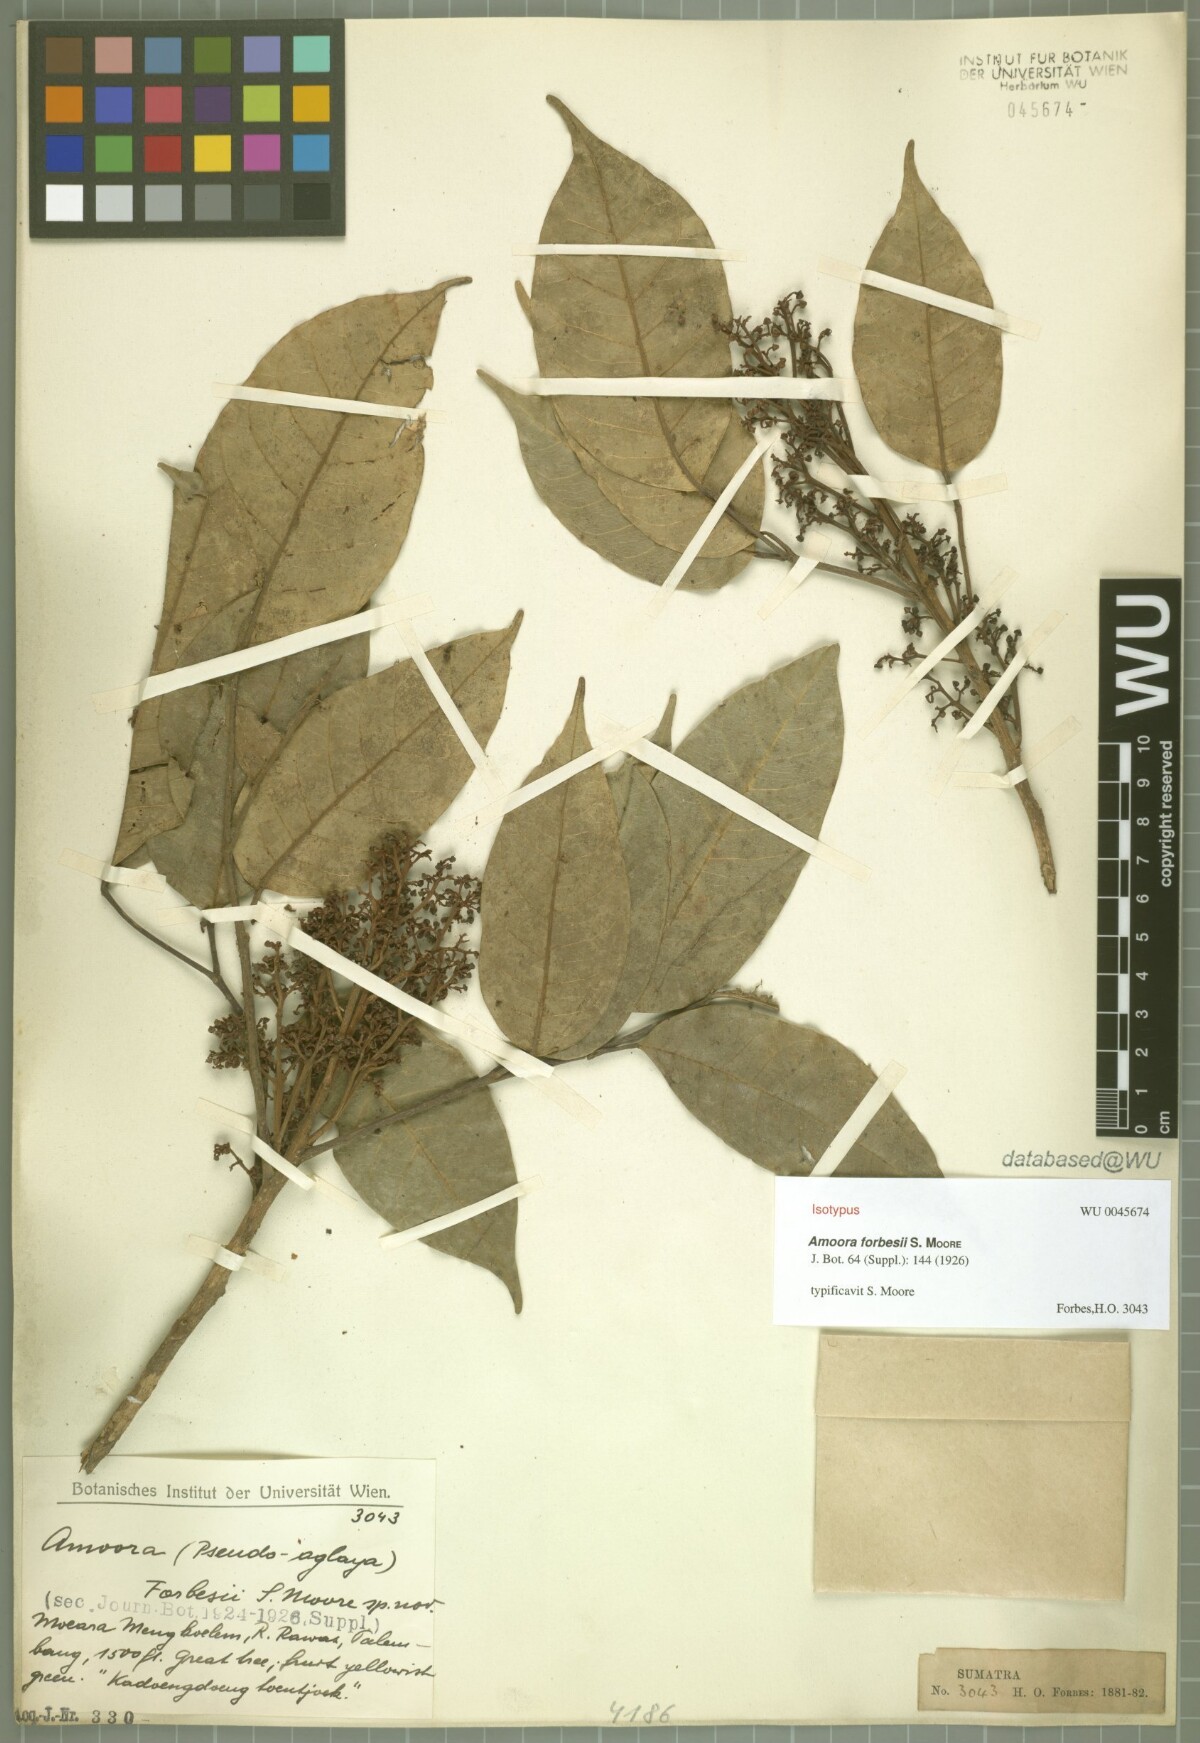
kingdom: Plantae
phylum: Tracheophyta
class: Magnoliopsida
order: Sapindales
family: Burseraceae
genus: Santiria
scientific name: Santiria apiculata
